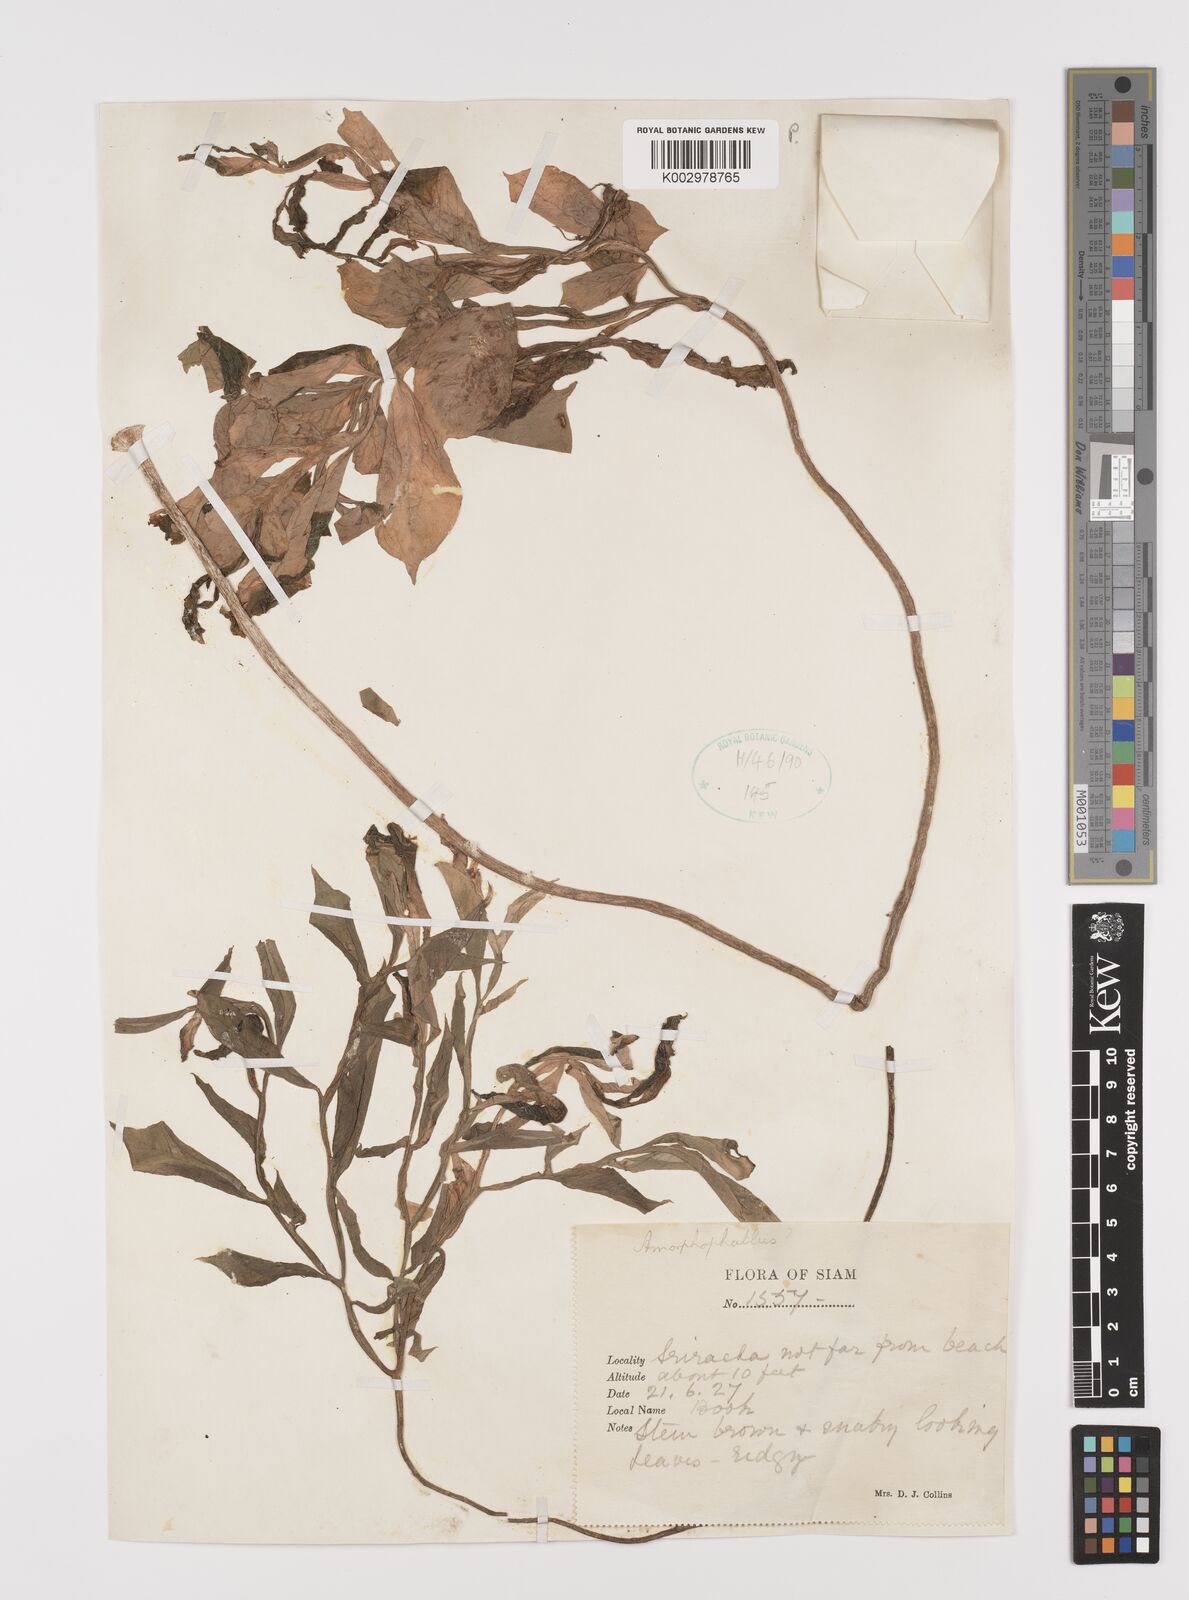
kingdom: Plantae
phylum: Tracheophyta
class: Liliopsida
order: Alismatales
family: Araceae
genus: Amorphophallus
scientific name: Amorphophallus
